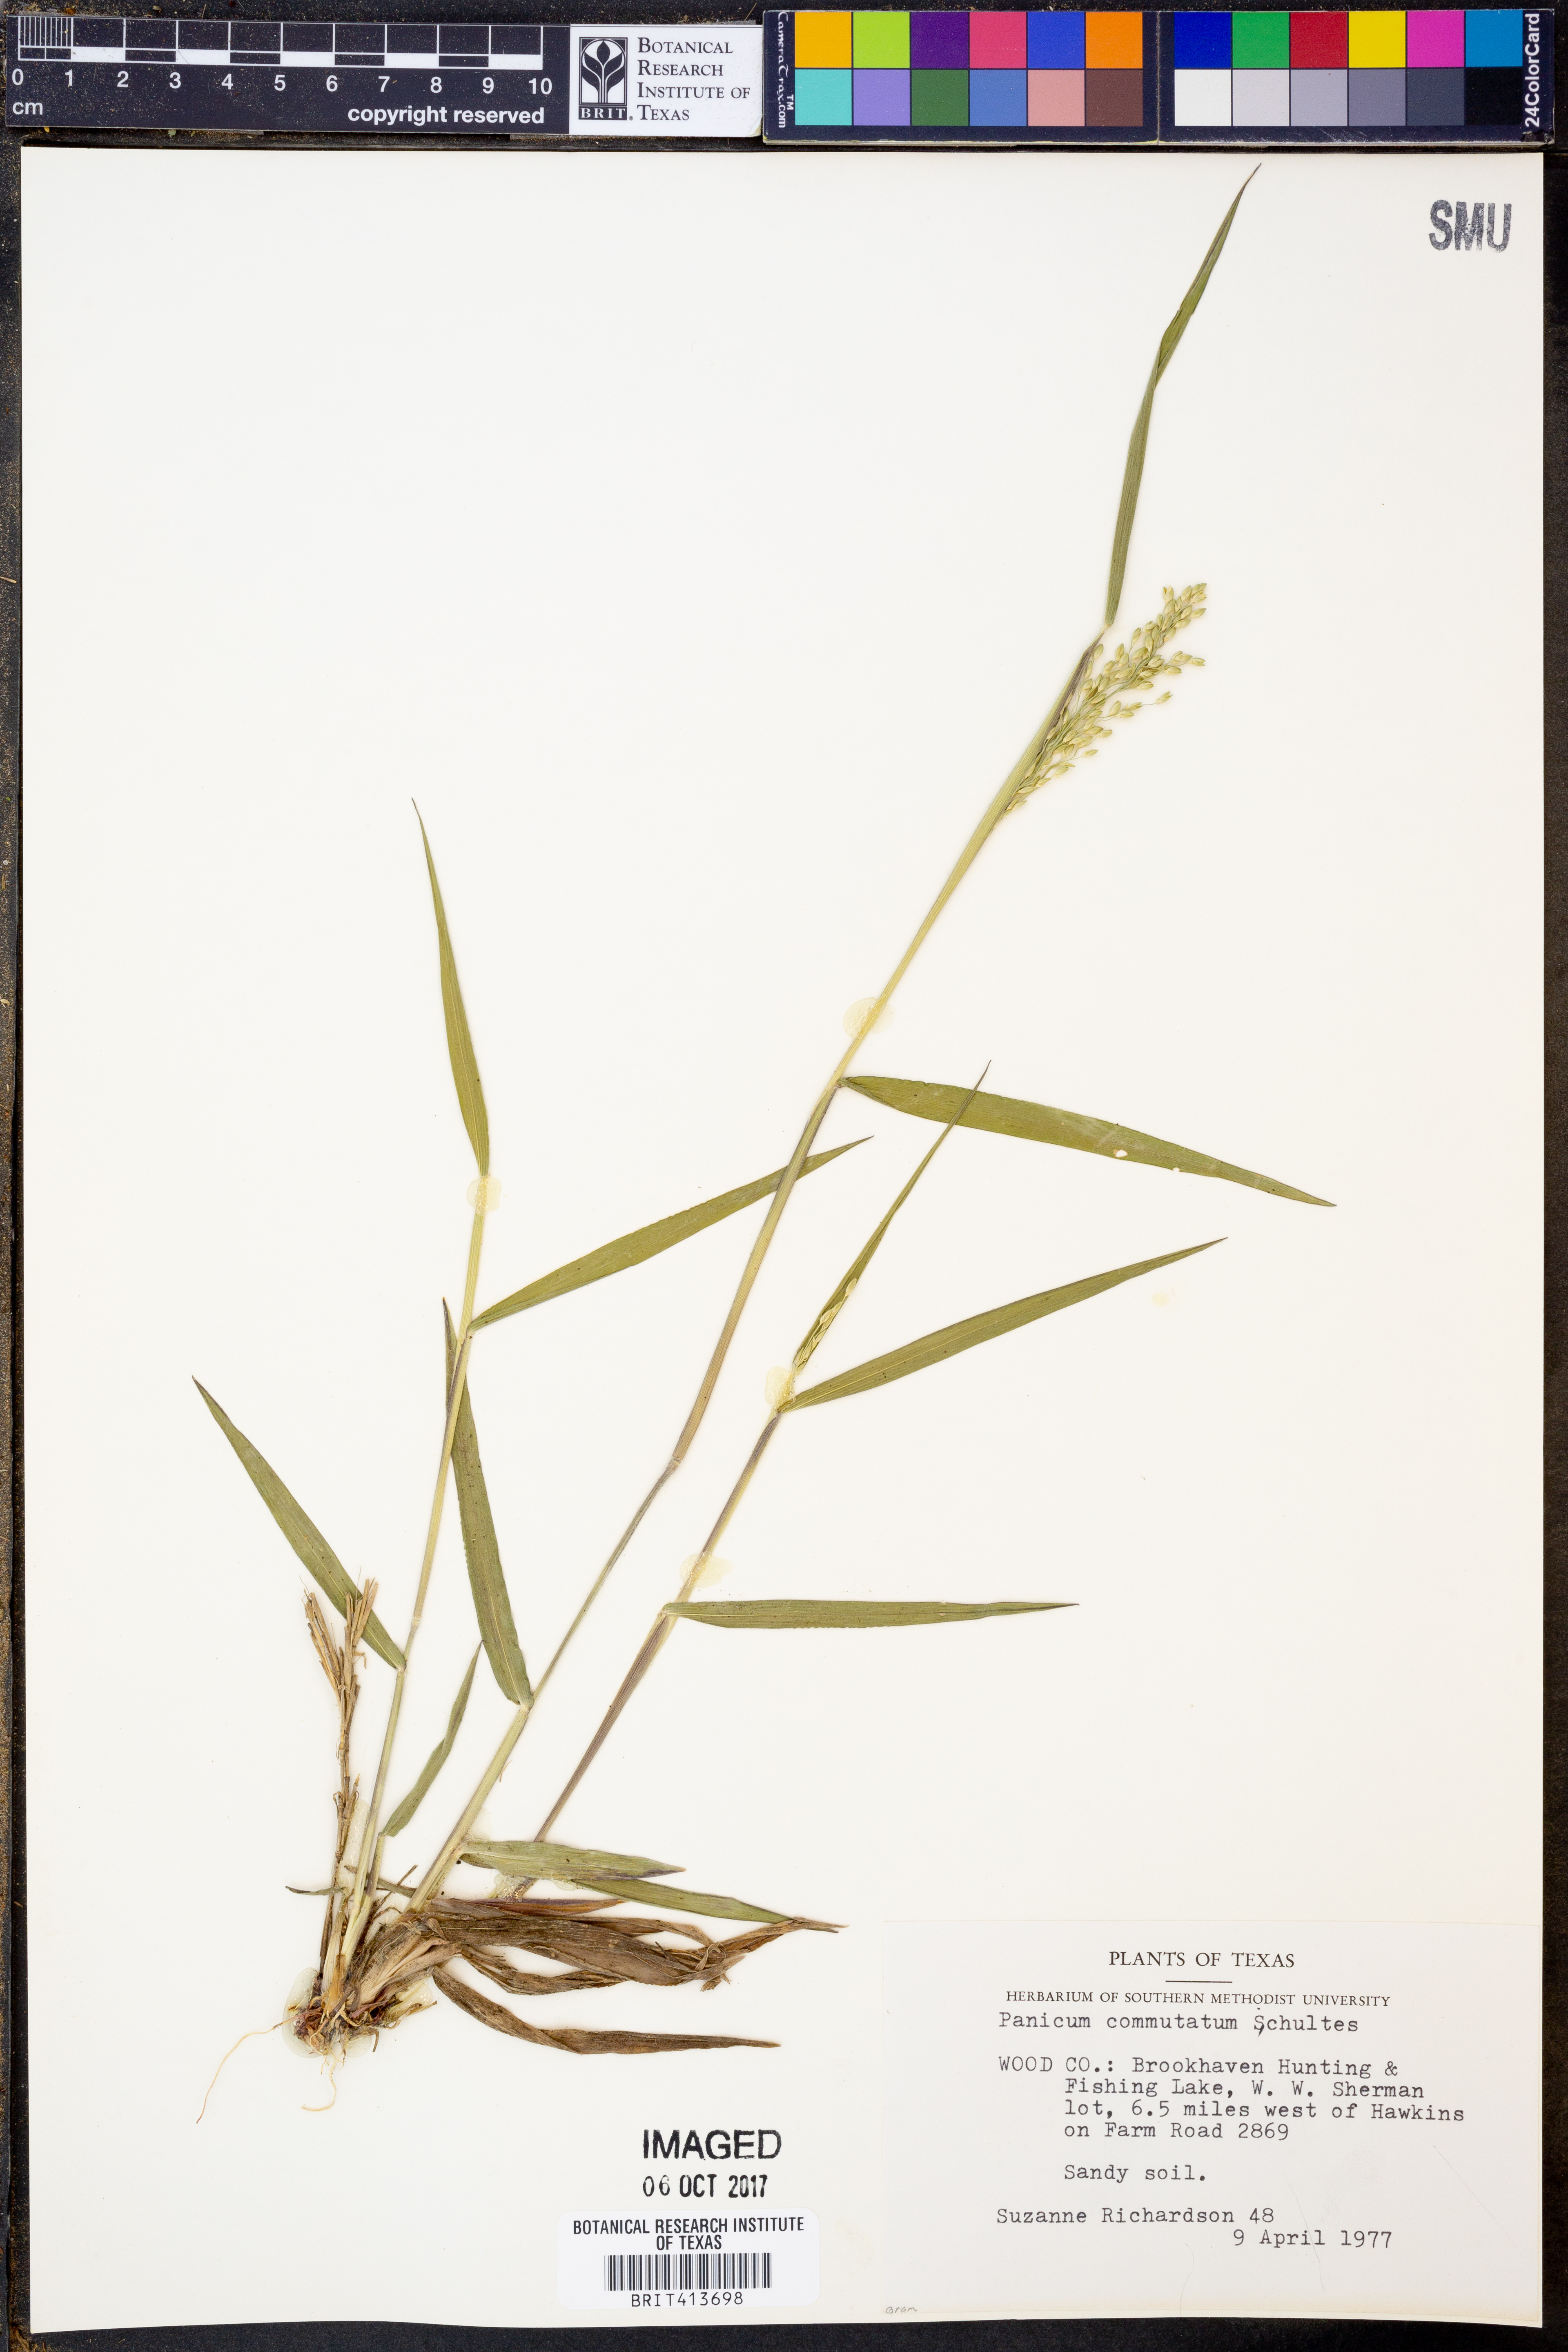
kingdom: Plantae
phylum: Tracheophyta
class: Liliopsida
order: Poales
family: Poaceae
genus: Dichanthelium
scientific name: Dichanthelium commutatum
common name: Variable witchgrass
